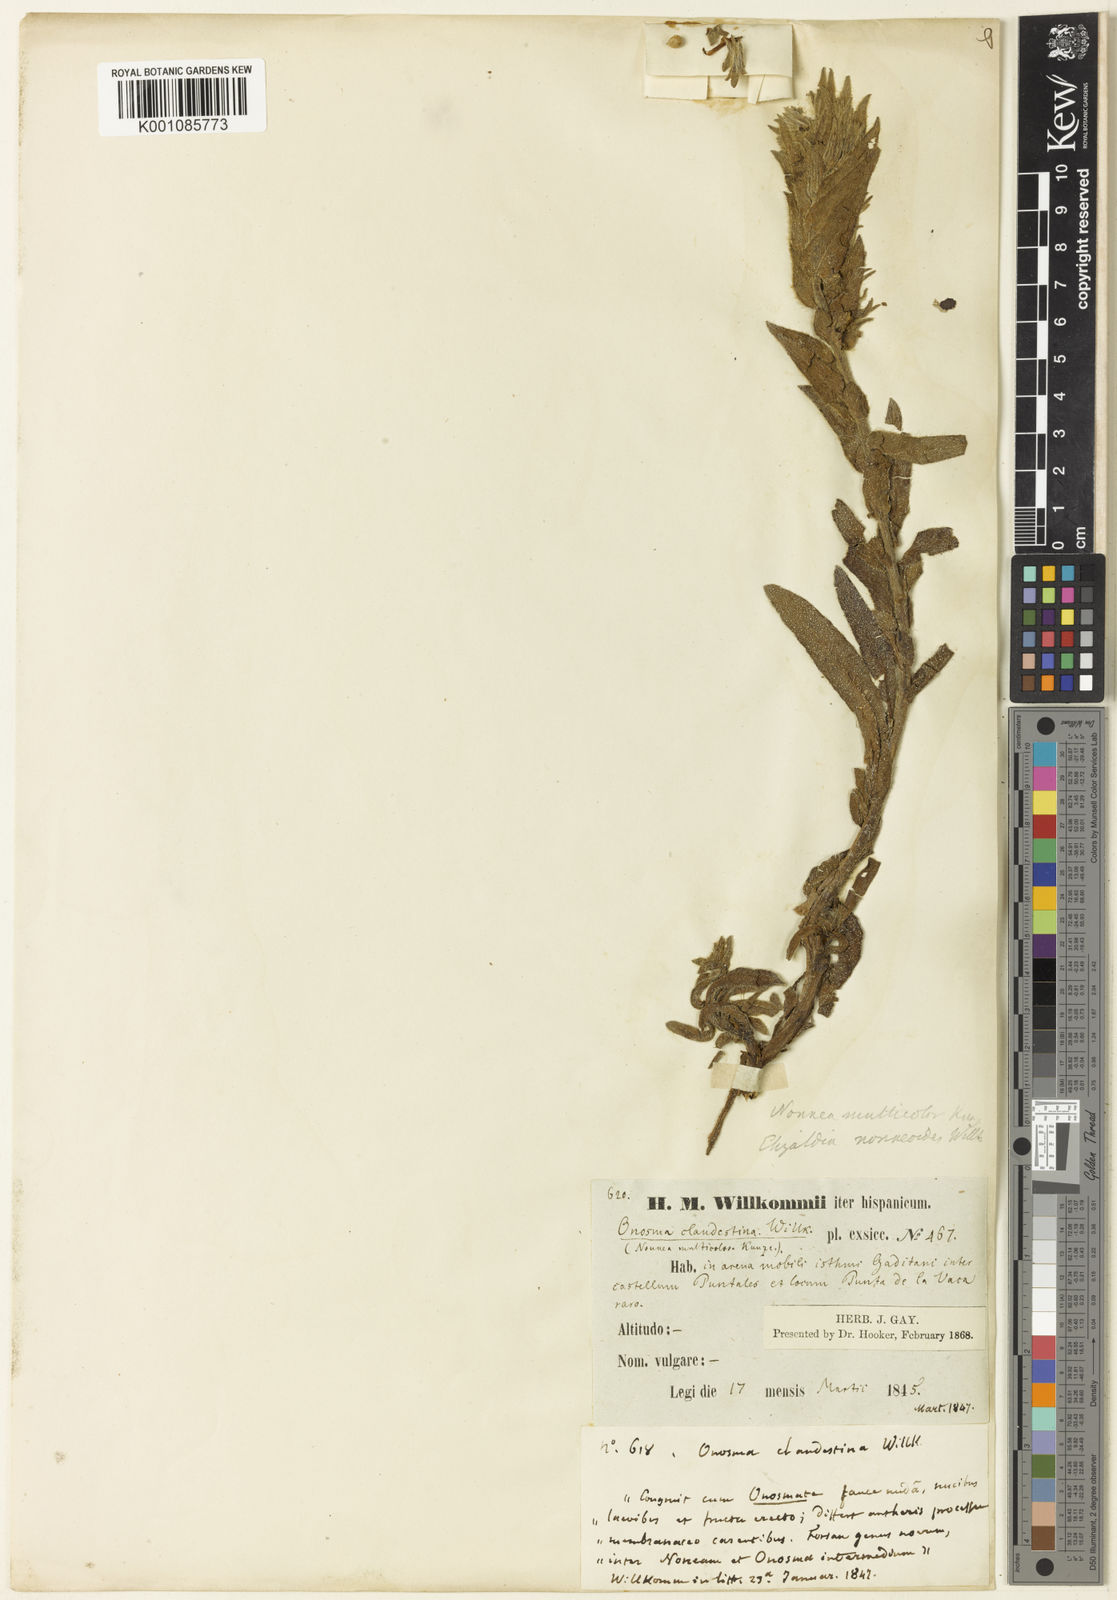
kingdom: Plantae
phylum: Tracheophyta
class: Magnoliopsida
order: Boraginales
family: Boraginaceae
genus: Nonea
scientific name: Nonea calycina
